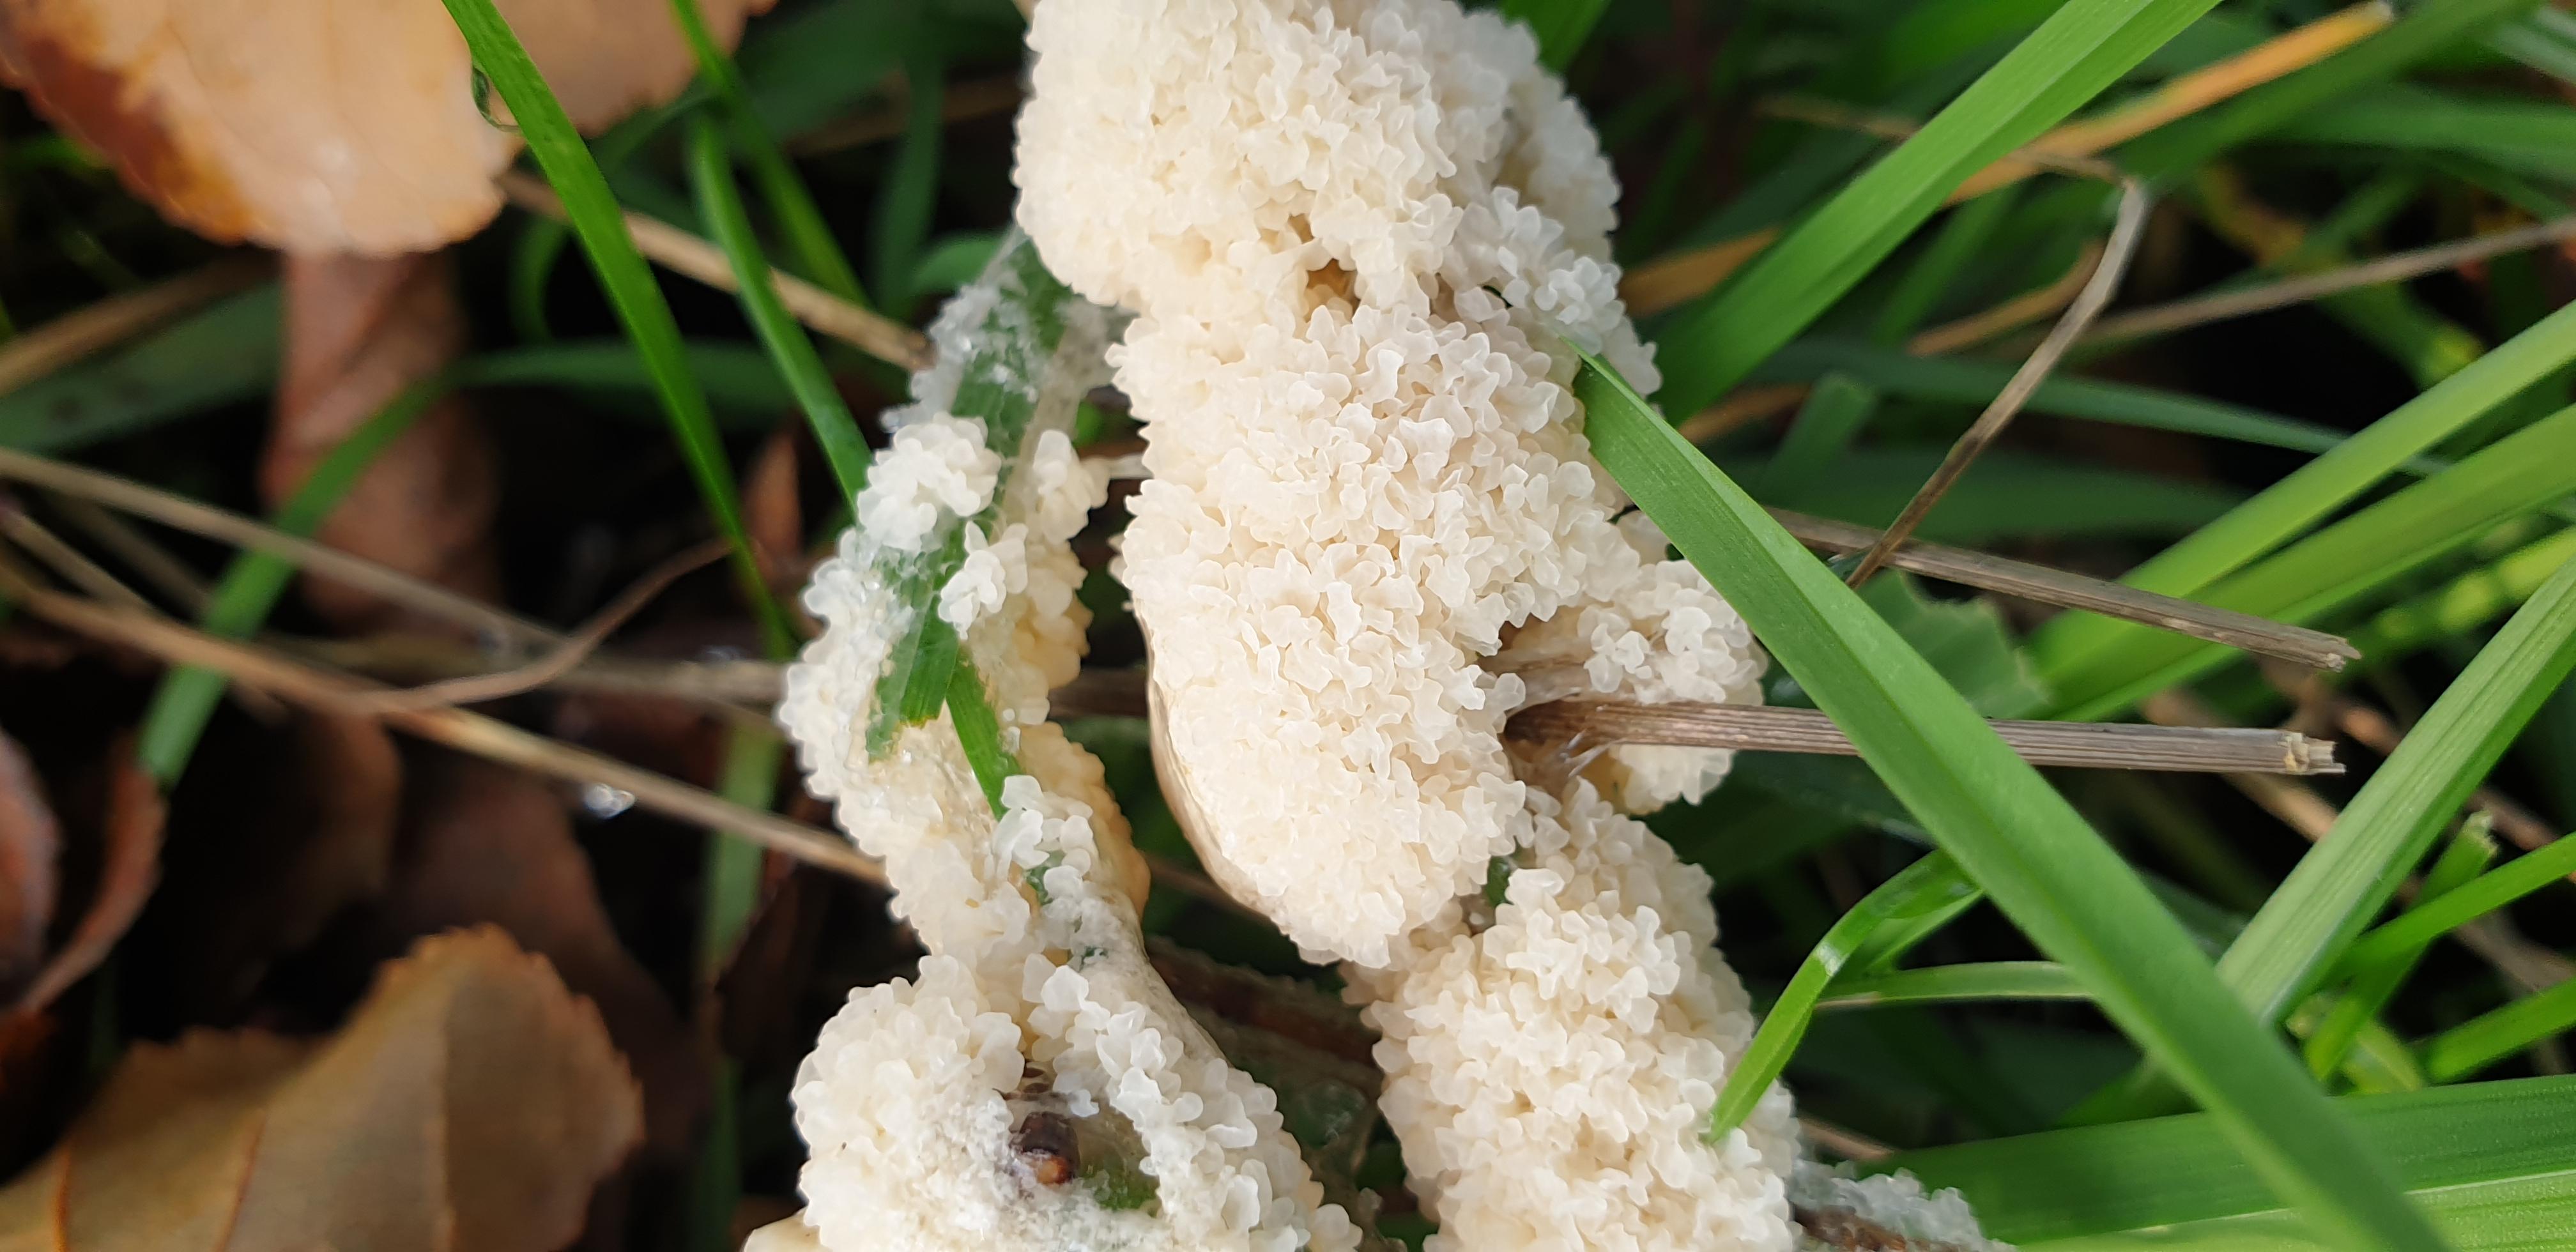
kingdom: Protozoa
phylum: Mycetozoa
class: Myxomycetes
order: Physarales
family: Physaraceae
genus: Didymium
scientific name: Didymium
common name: urteskum
